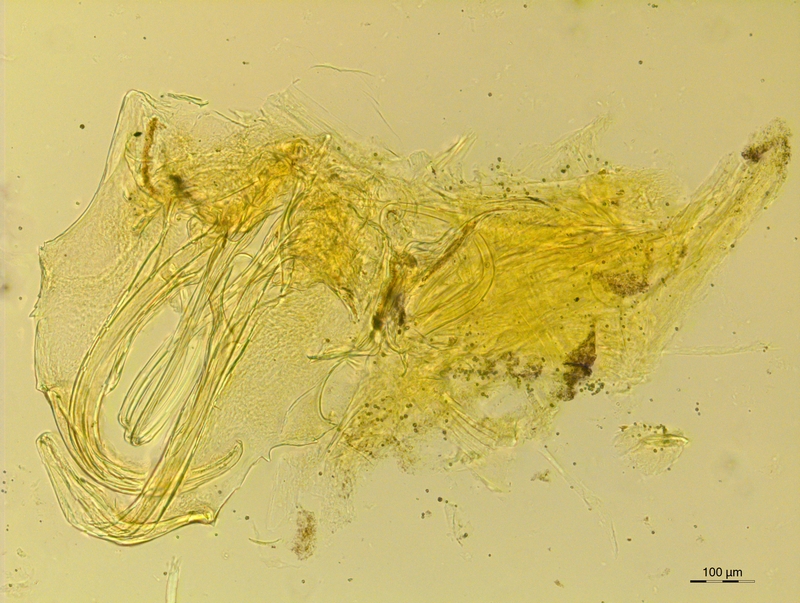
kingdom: Animalia
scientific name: Animalia
